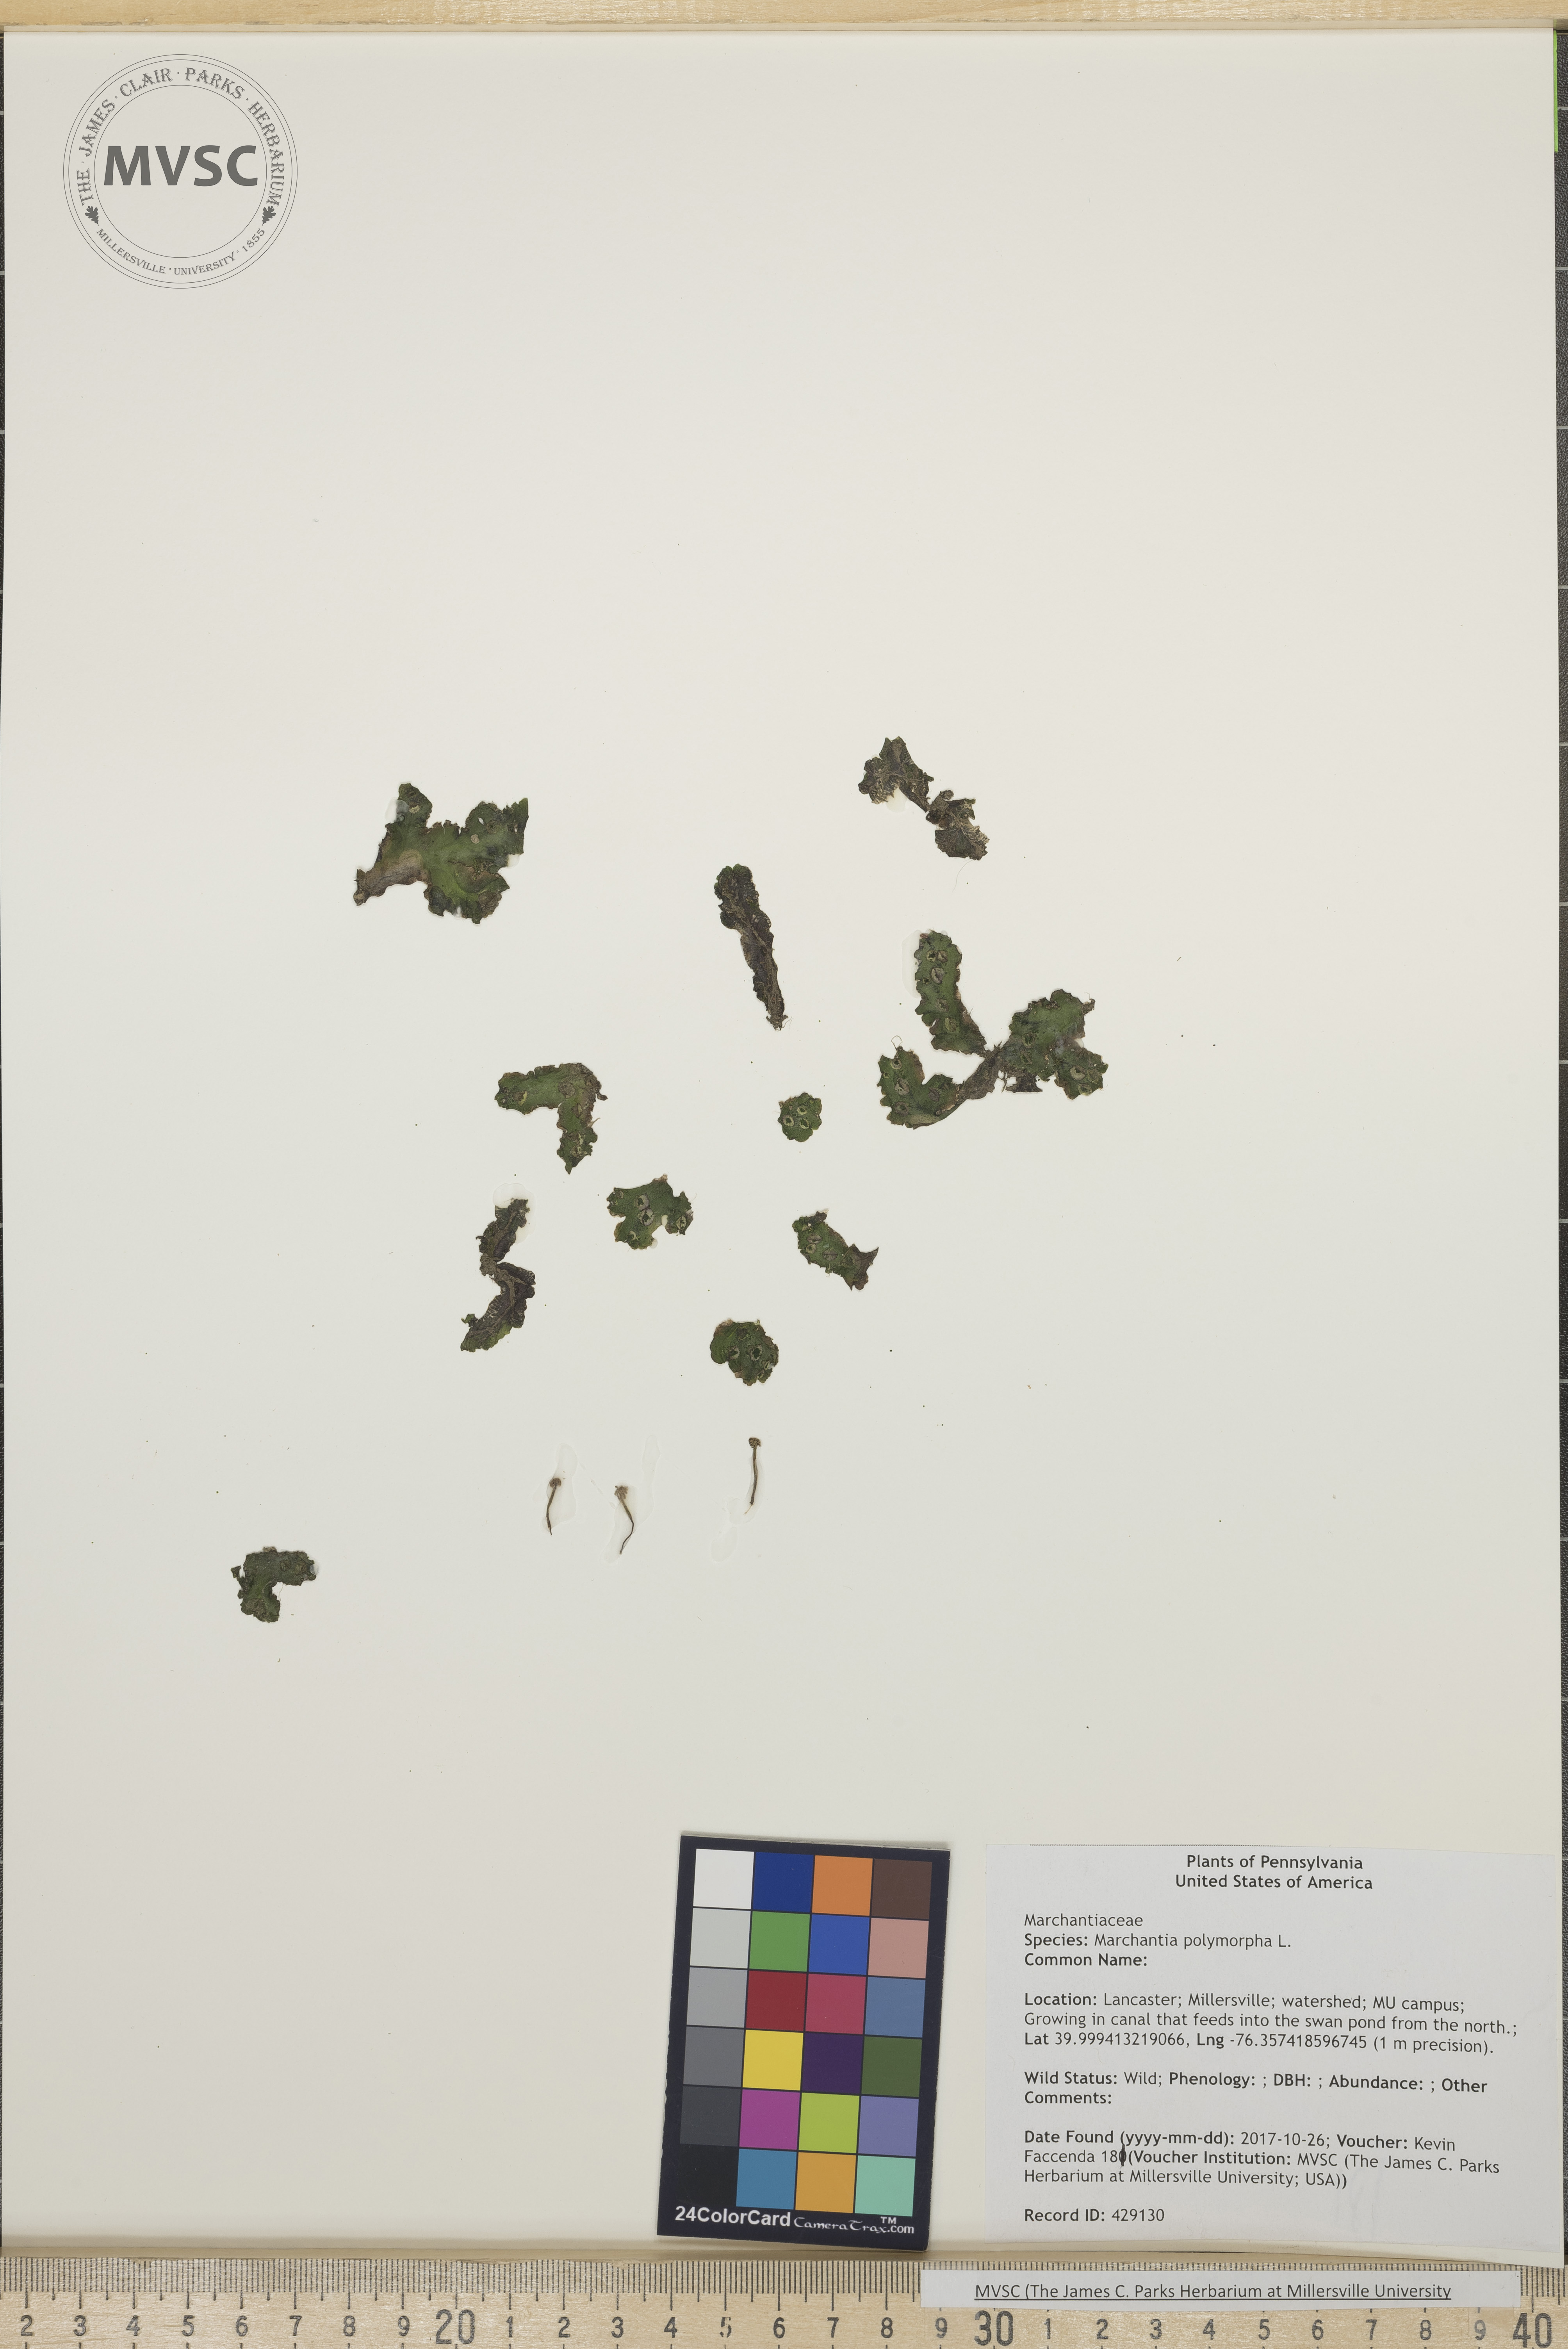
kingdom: Plantae
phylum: Marchantiophyta
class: Marchantiopsida
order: Marchantiales
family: Marchantiaceae
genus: Marchantia
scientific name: Marchantia polymorpha
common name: Common liverwort
